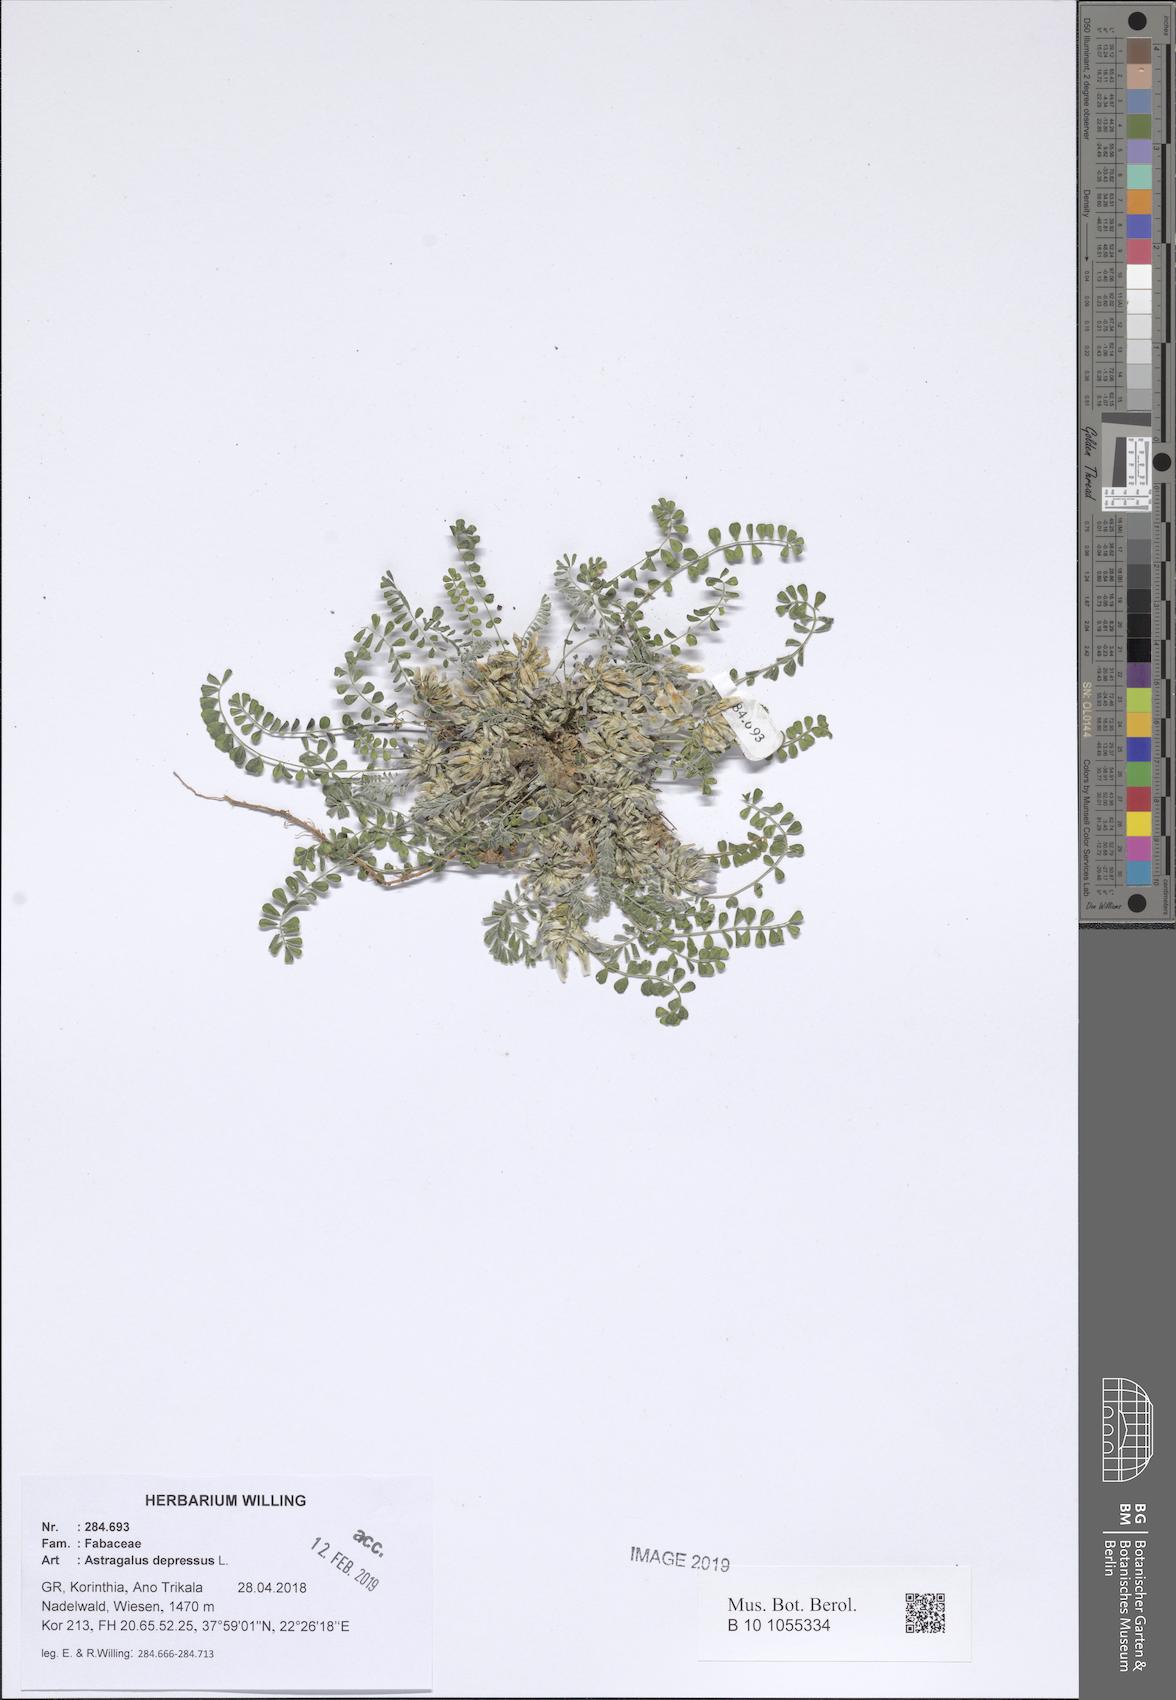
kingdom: Plantae
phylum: Tracheophyta
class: Magnoliopsida
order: Fabales
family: Fabaceae
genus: Astragalus
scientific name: Astragalus depressus
